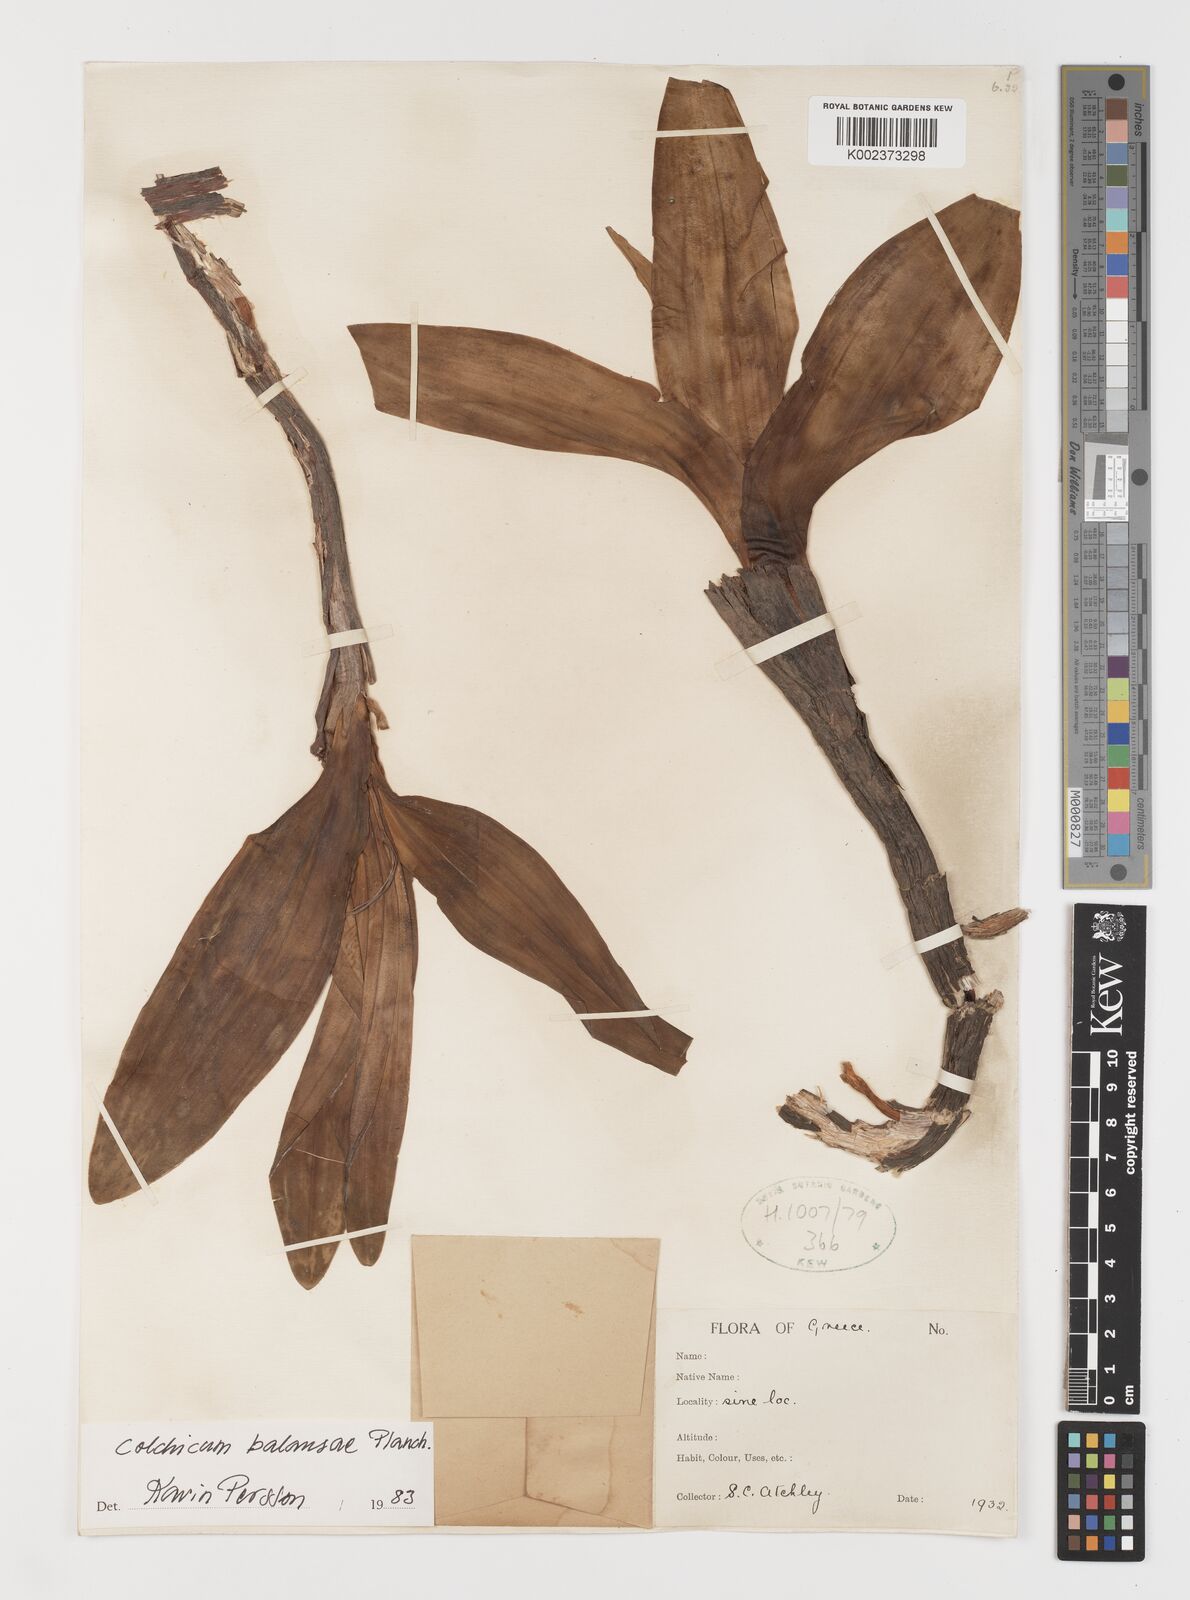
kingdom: Plantae
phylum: Tracheophyta
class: Liliopsida
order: Liliales
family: Colchicaceae
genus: Colchicum
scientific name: Colchicum balansae
